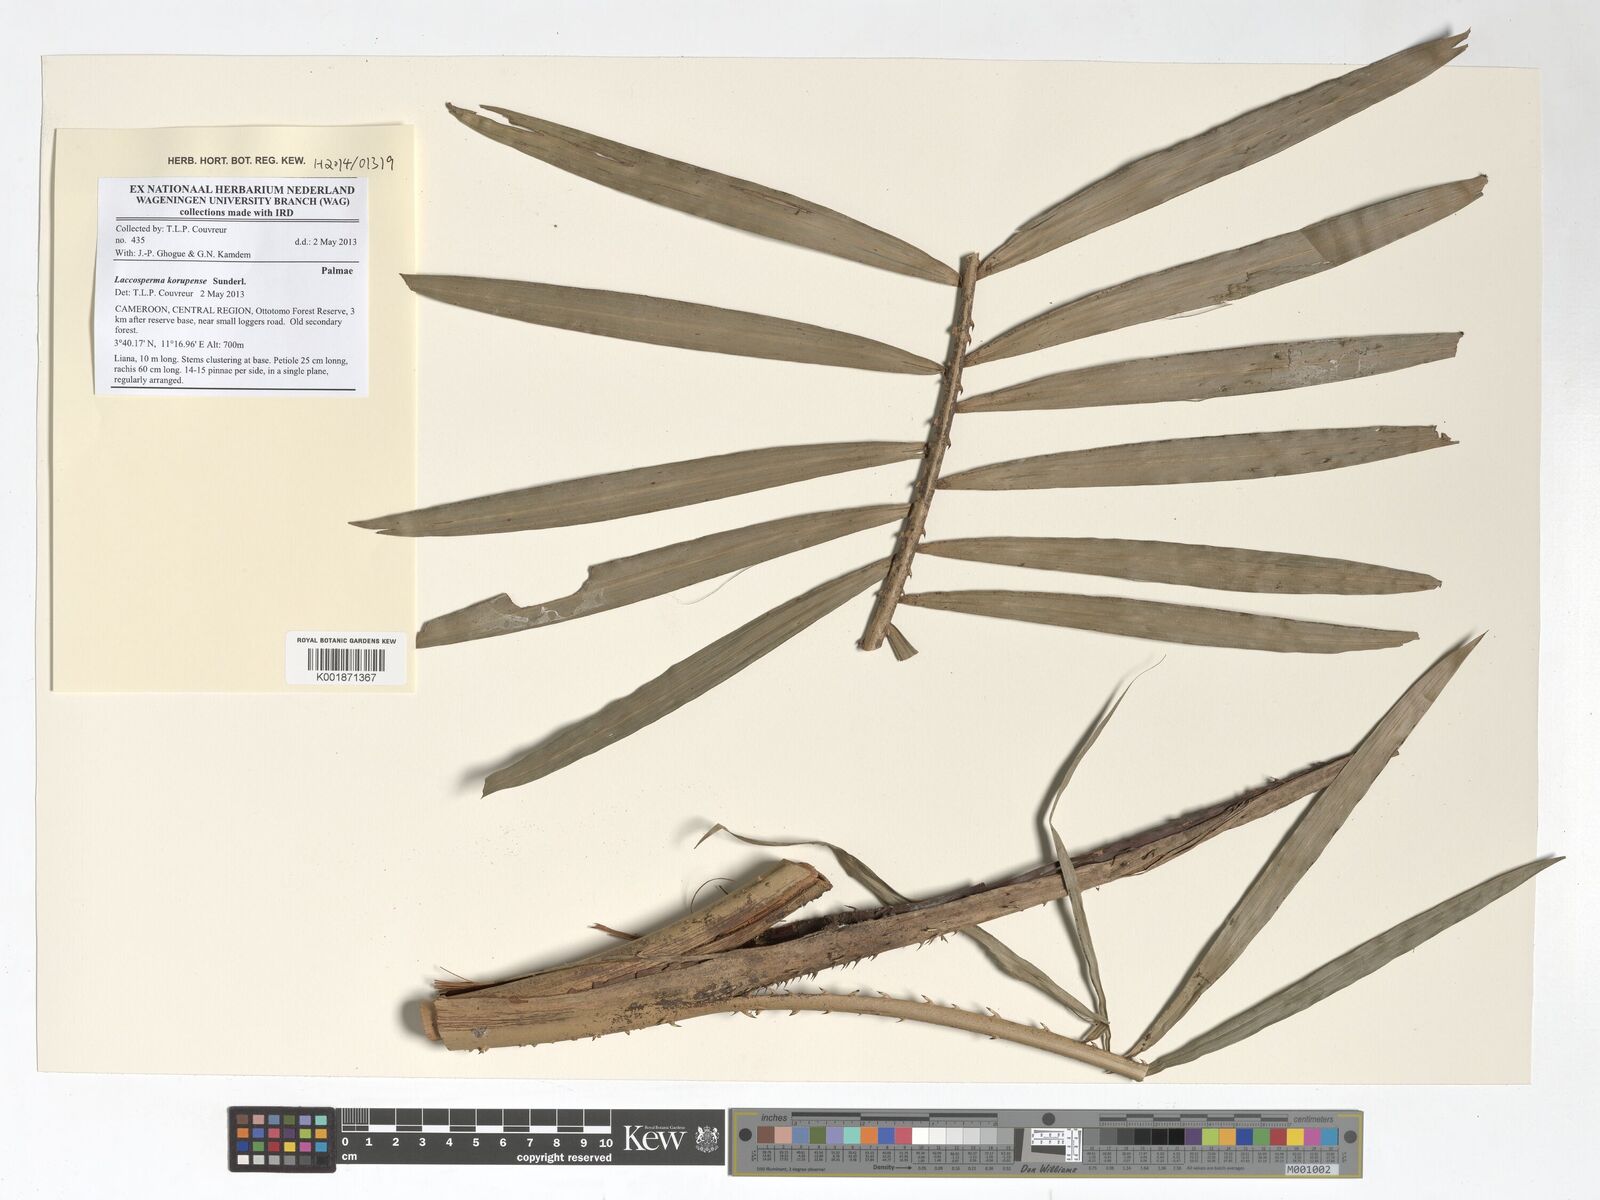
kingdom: Plantae
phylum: Tracheophyta
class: Liliopsida
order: Arecales
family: Arecaceae
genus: Laccosperma
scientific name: Laccosperma korupense
